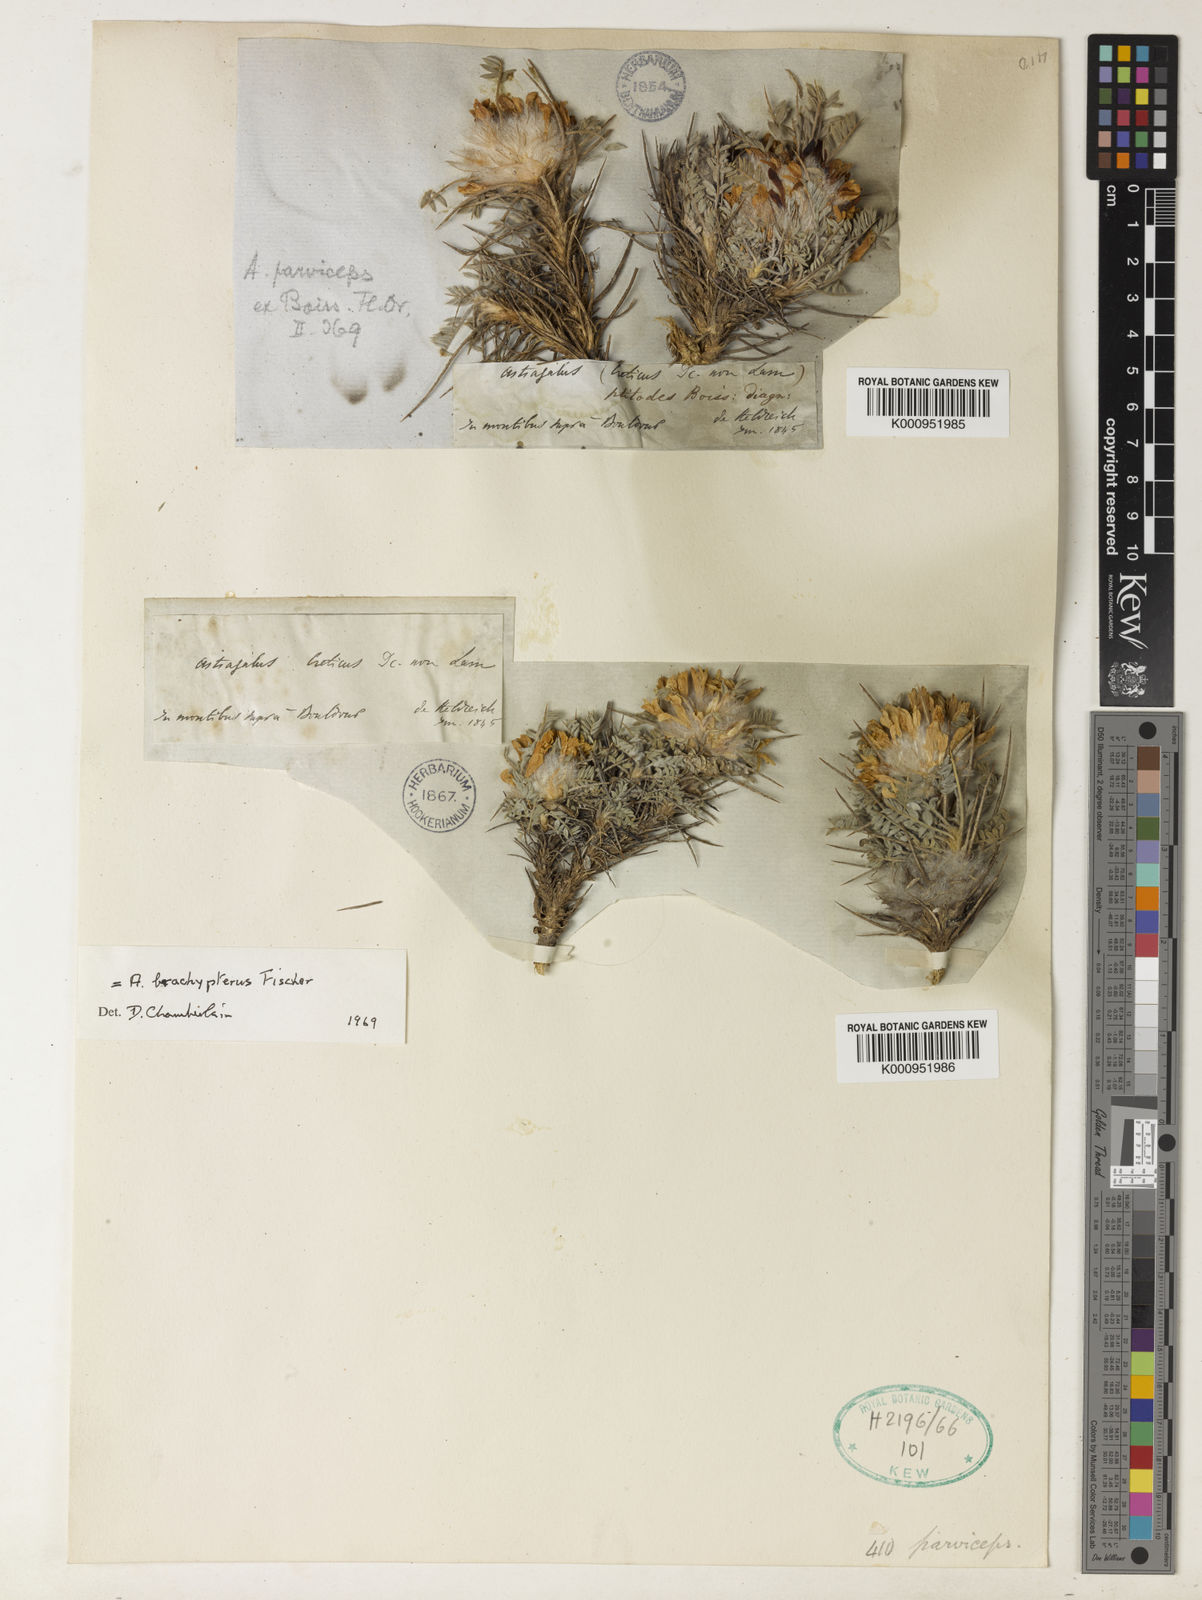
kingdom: Plantae
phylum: Tracheophyta
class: Magnoliopsida
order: Fabales
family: Fabaceae
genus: Astragalus
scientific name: Astragalus condensatus
